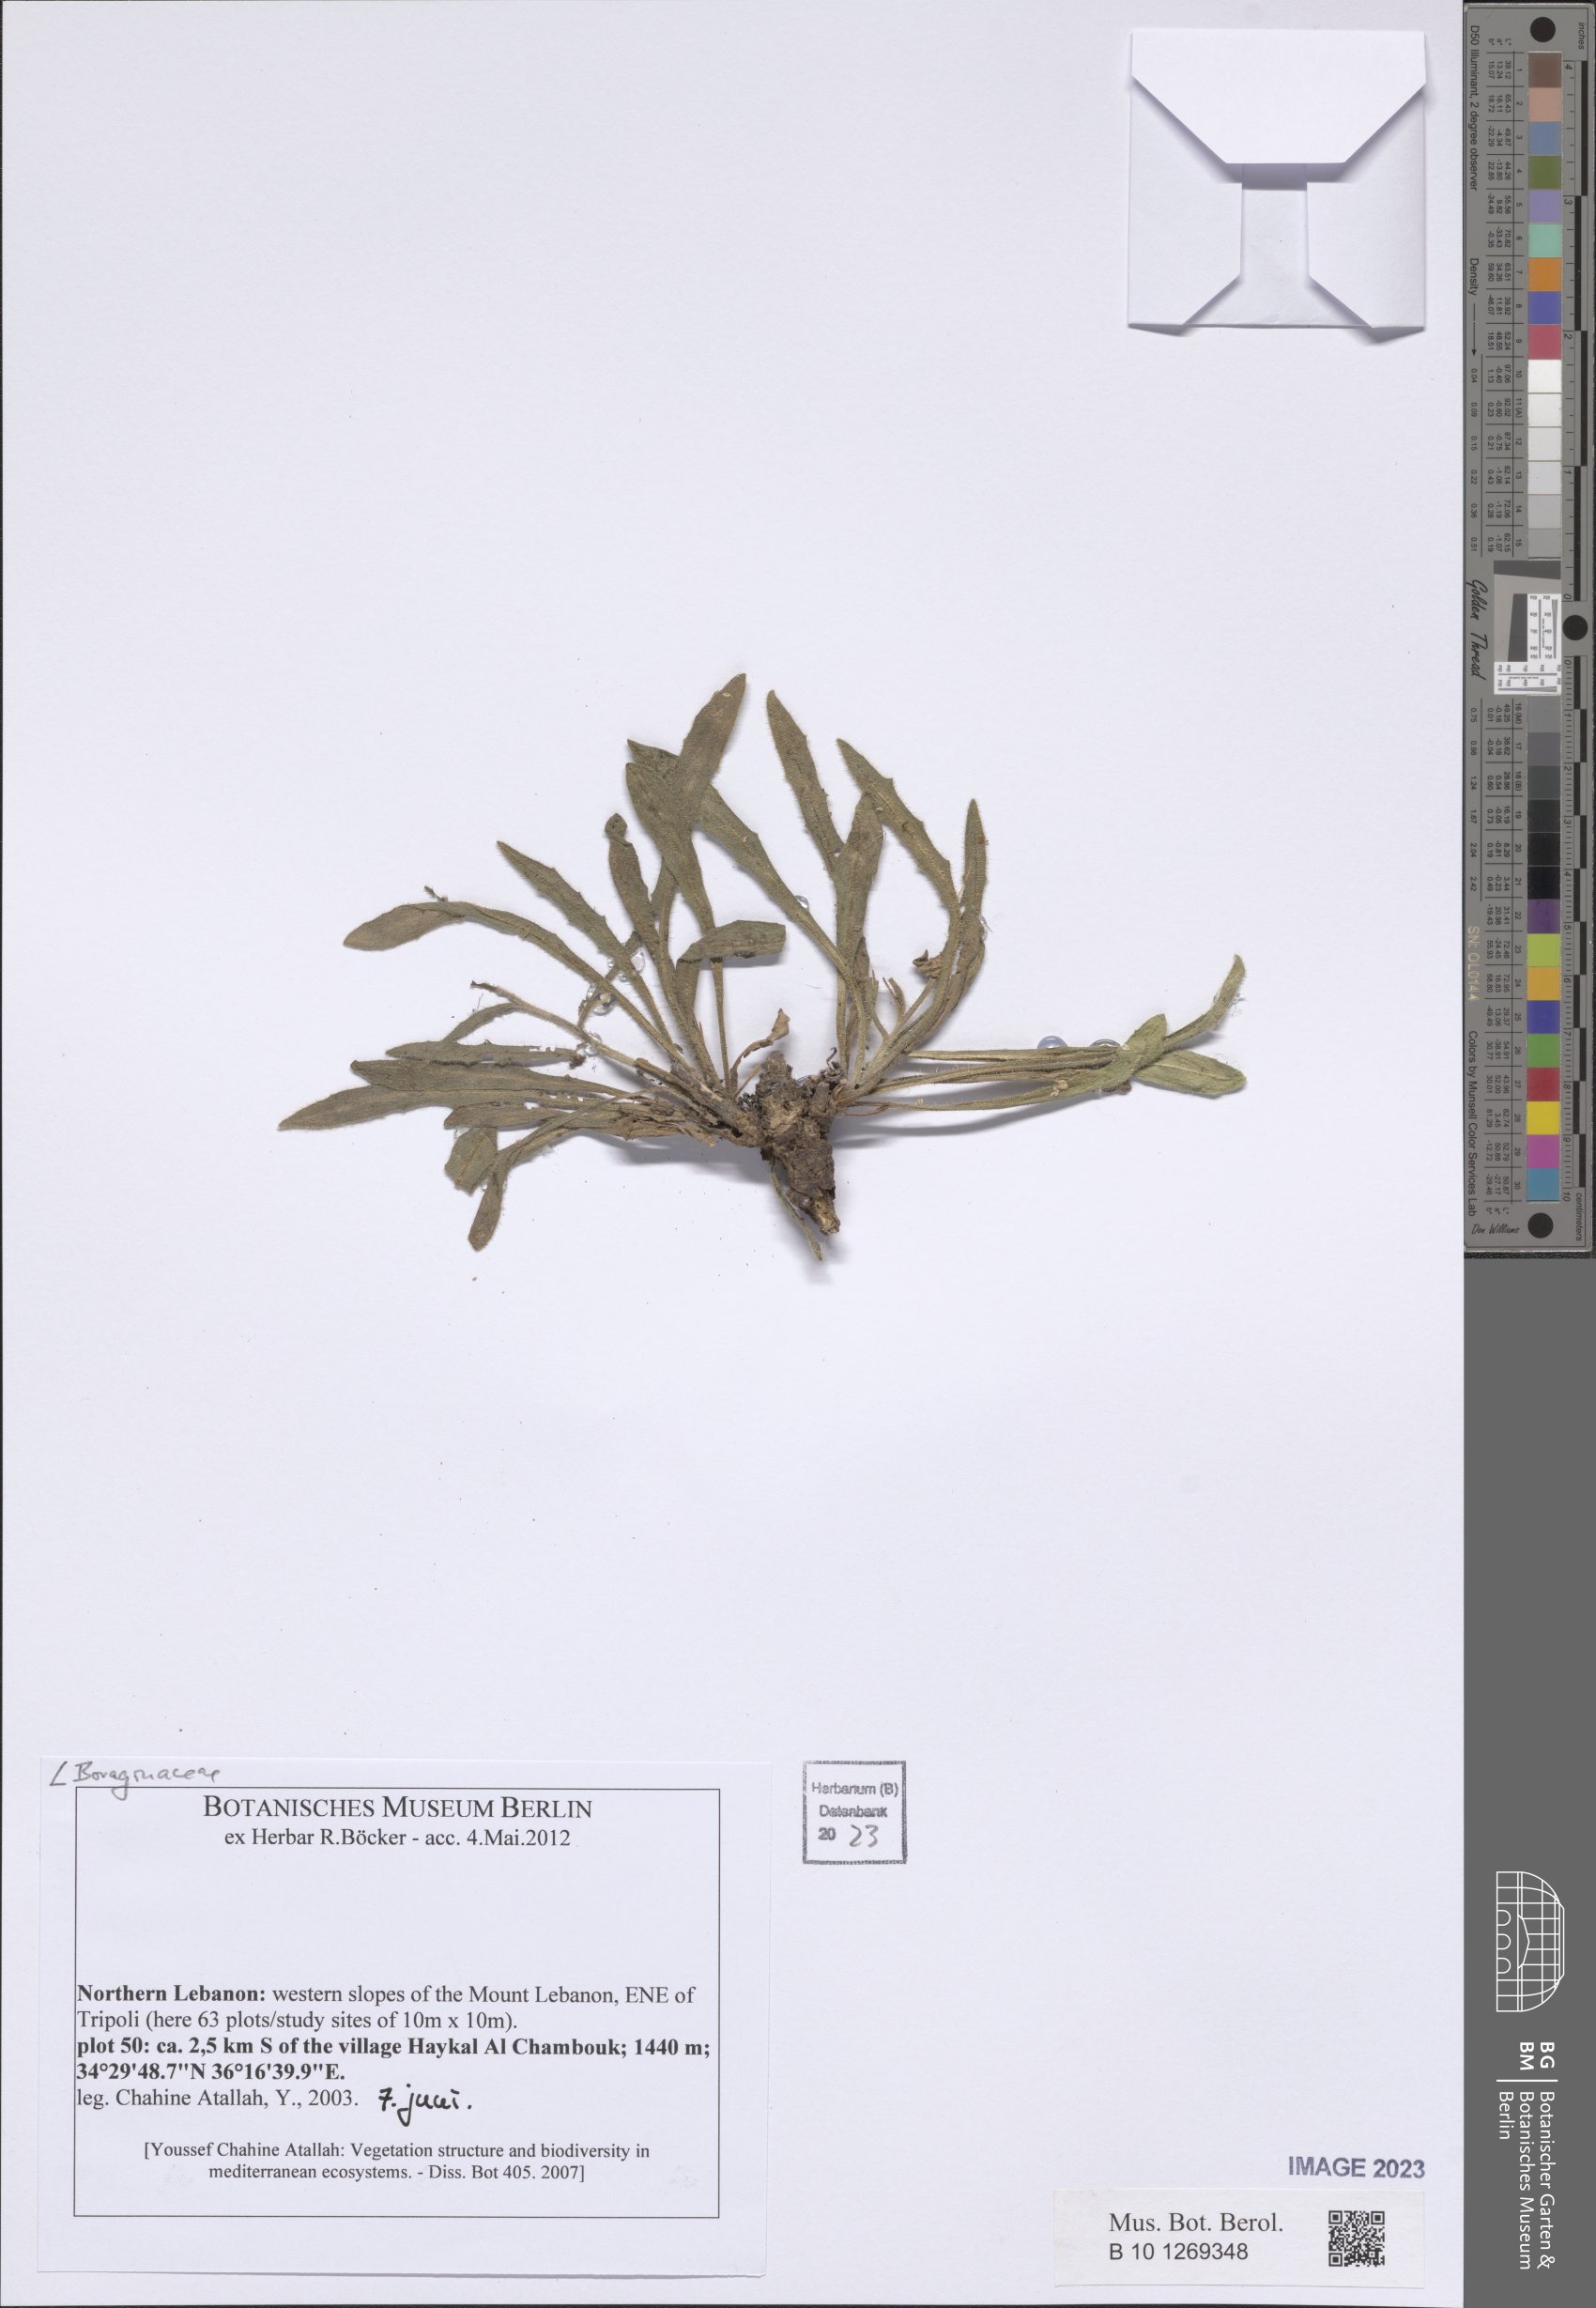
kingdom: Plantae
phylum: Tracheophyta
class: Magnoliopsida
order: Boraginales
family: Boraginaceae
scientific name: Boraginaceae
